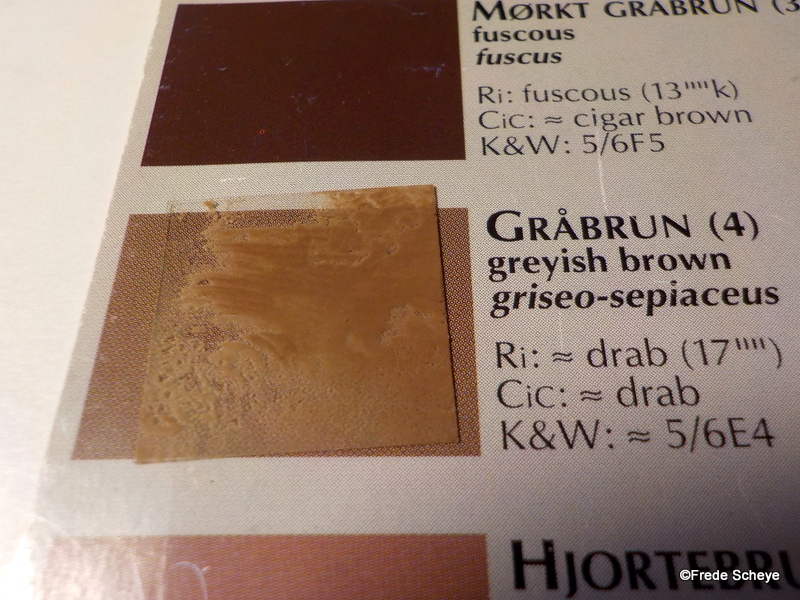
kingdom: Fungi
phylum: Basidiomycota
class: Agaricomycetes
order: Boletales
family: Paxillaceae
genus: Paxillus
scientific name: Paxillus involutus
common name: almindelig netbladhat
